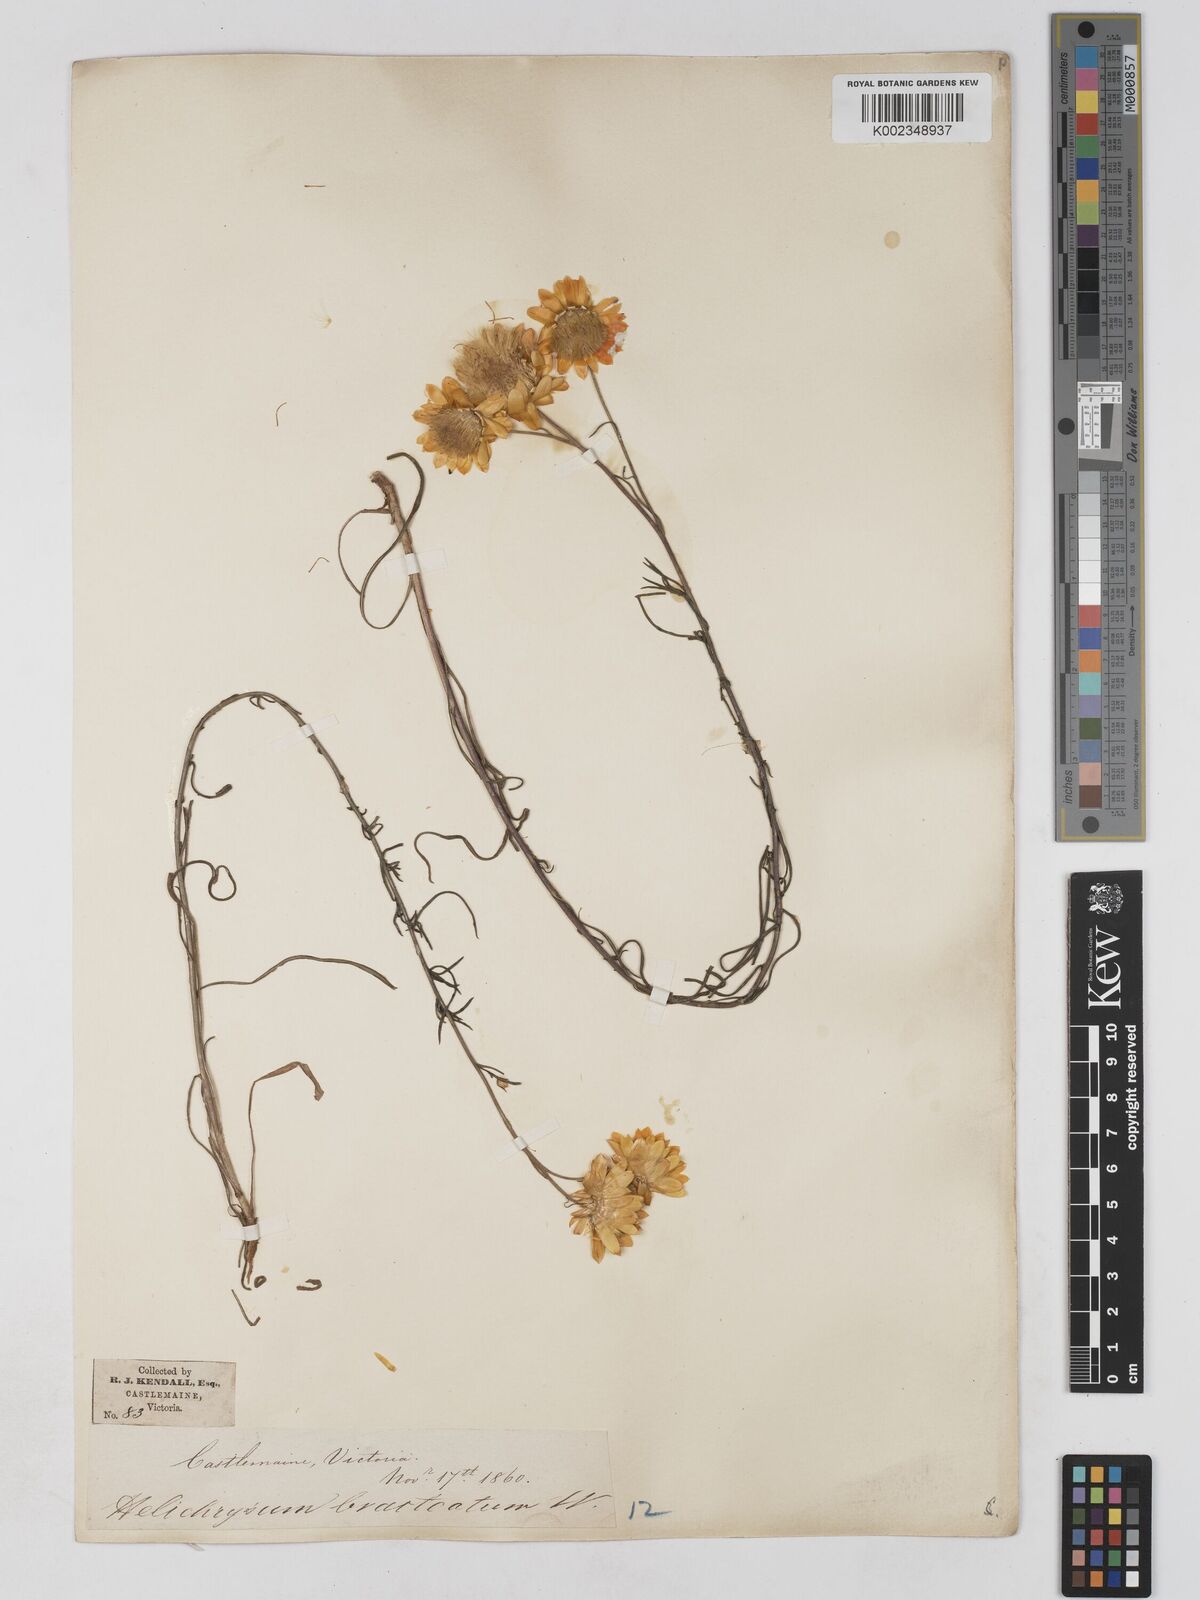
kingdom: Plantae
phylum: Tracheophyta
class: Magnoliopsida
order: Asterales
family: Asteraceae
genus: Xerochrysum
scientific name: Xerochrysum bracteatum
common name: Bracted strawflower
